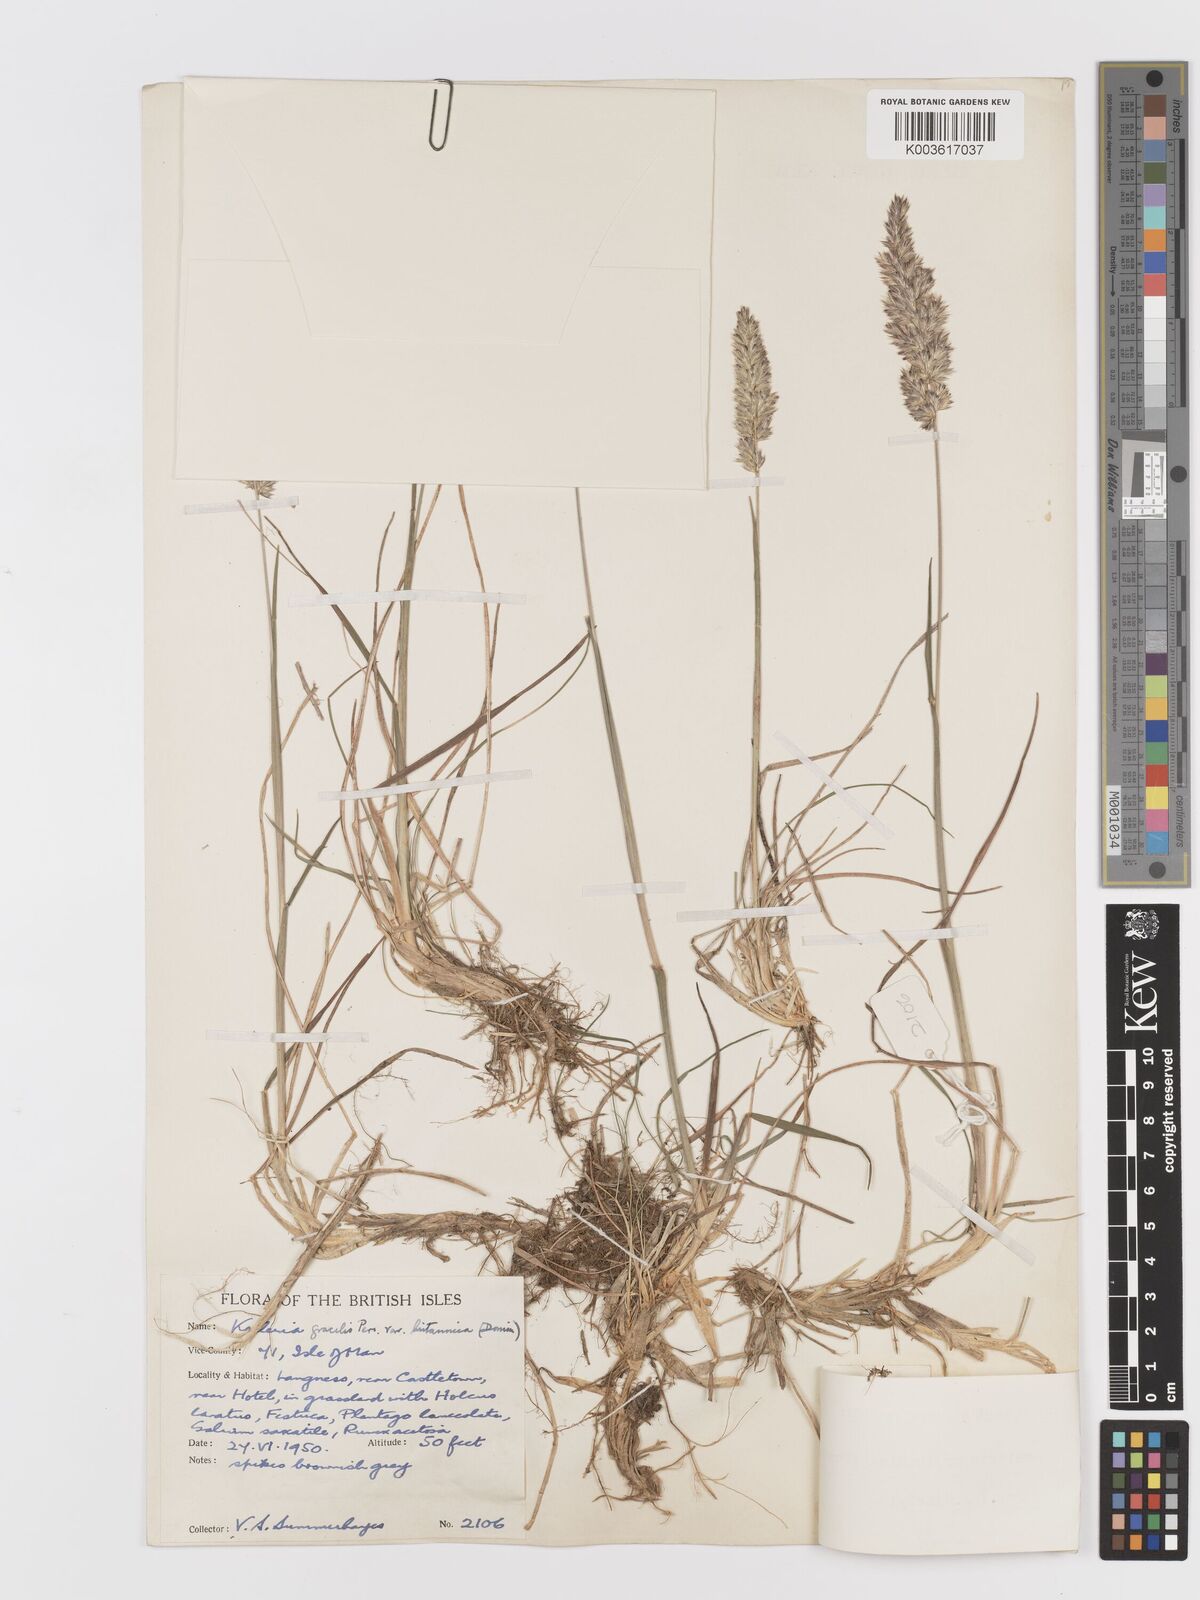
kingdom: Plantae
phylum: Tracheophyta
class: Liliopsida
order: Poales
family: Poaceae
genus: Koeleria
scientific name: Koeleria macrantha
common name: Crested hair-grass
